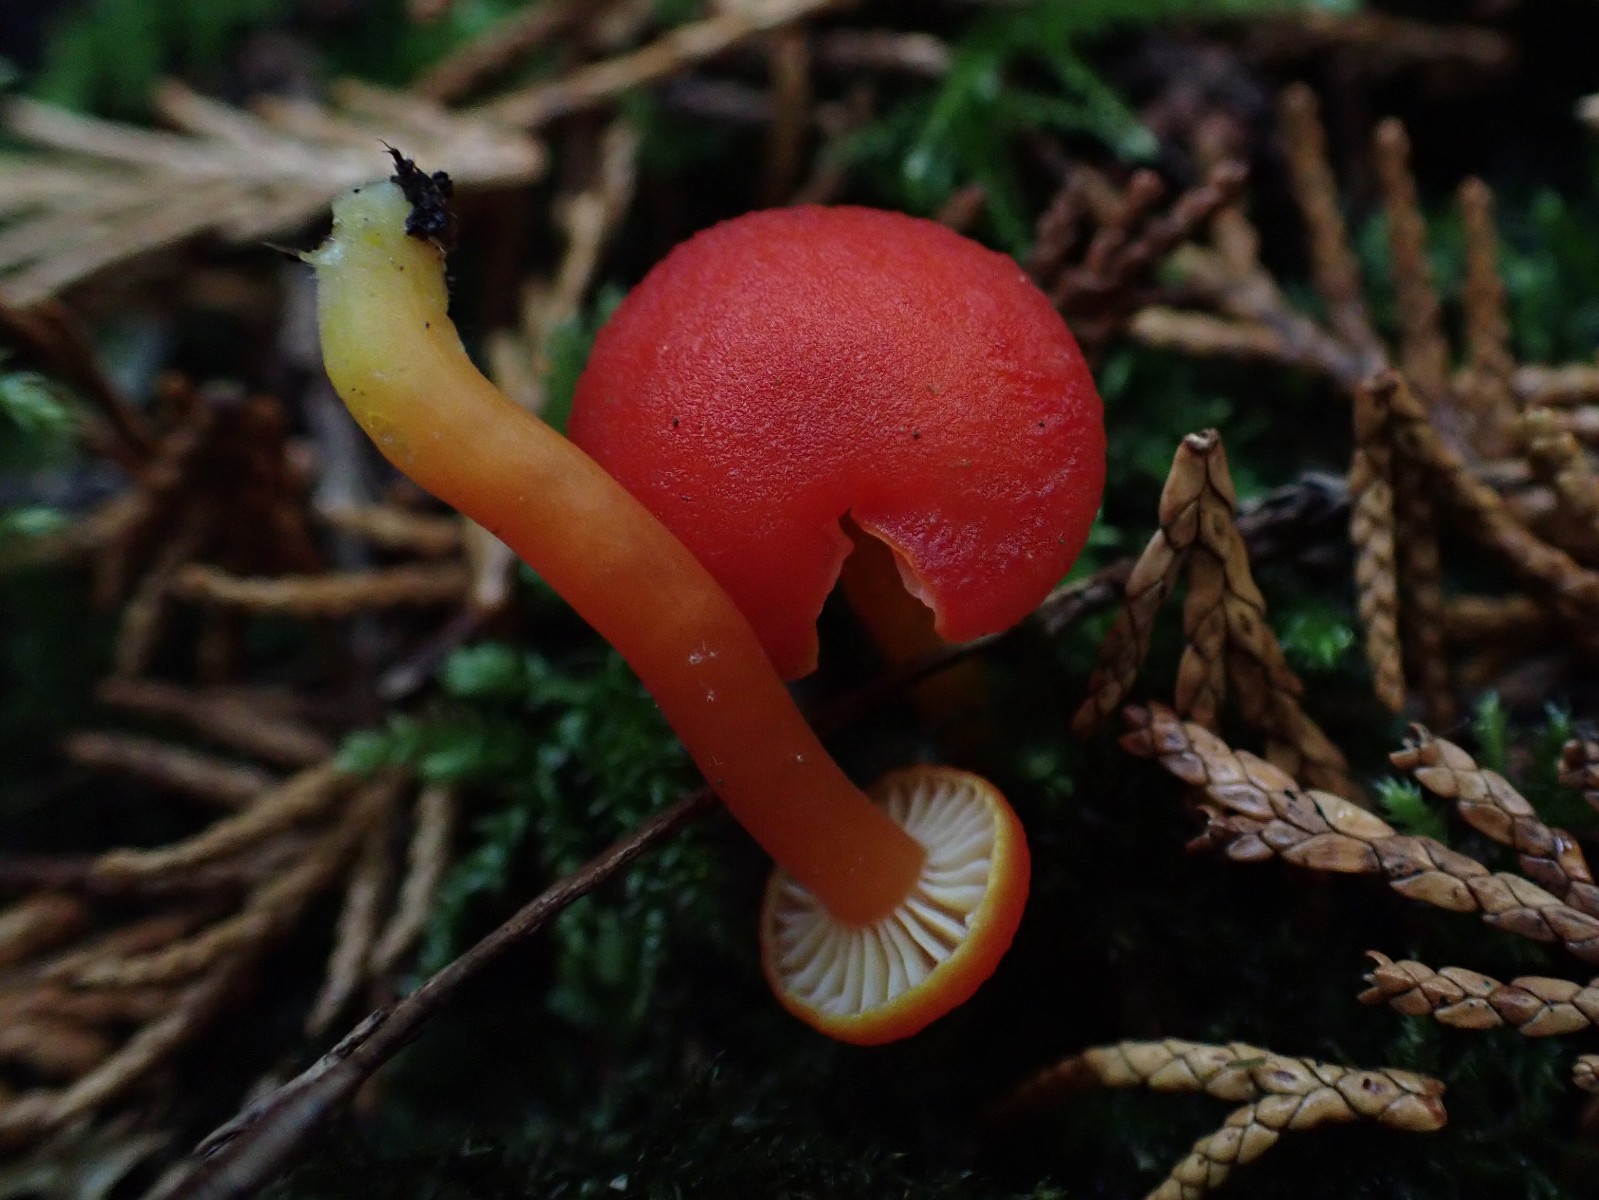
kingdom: Fungi
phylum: Basidiomycota
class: Agaricomycetes
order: Agaricales
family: Hygrophoraceae
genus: Hygrocybe
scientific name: Hygrocybe miniata
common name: mønje-vokshat
